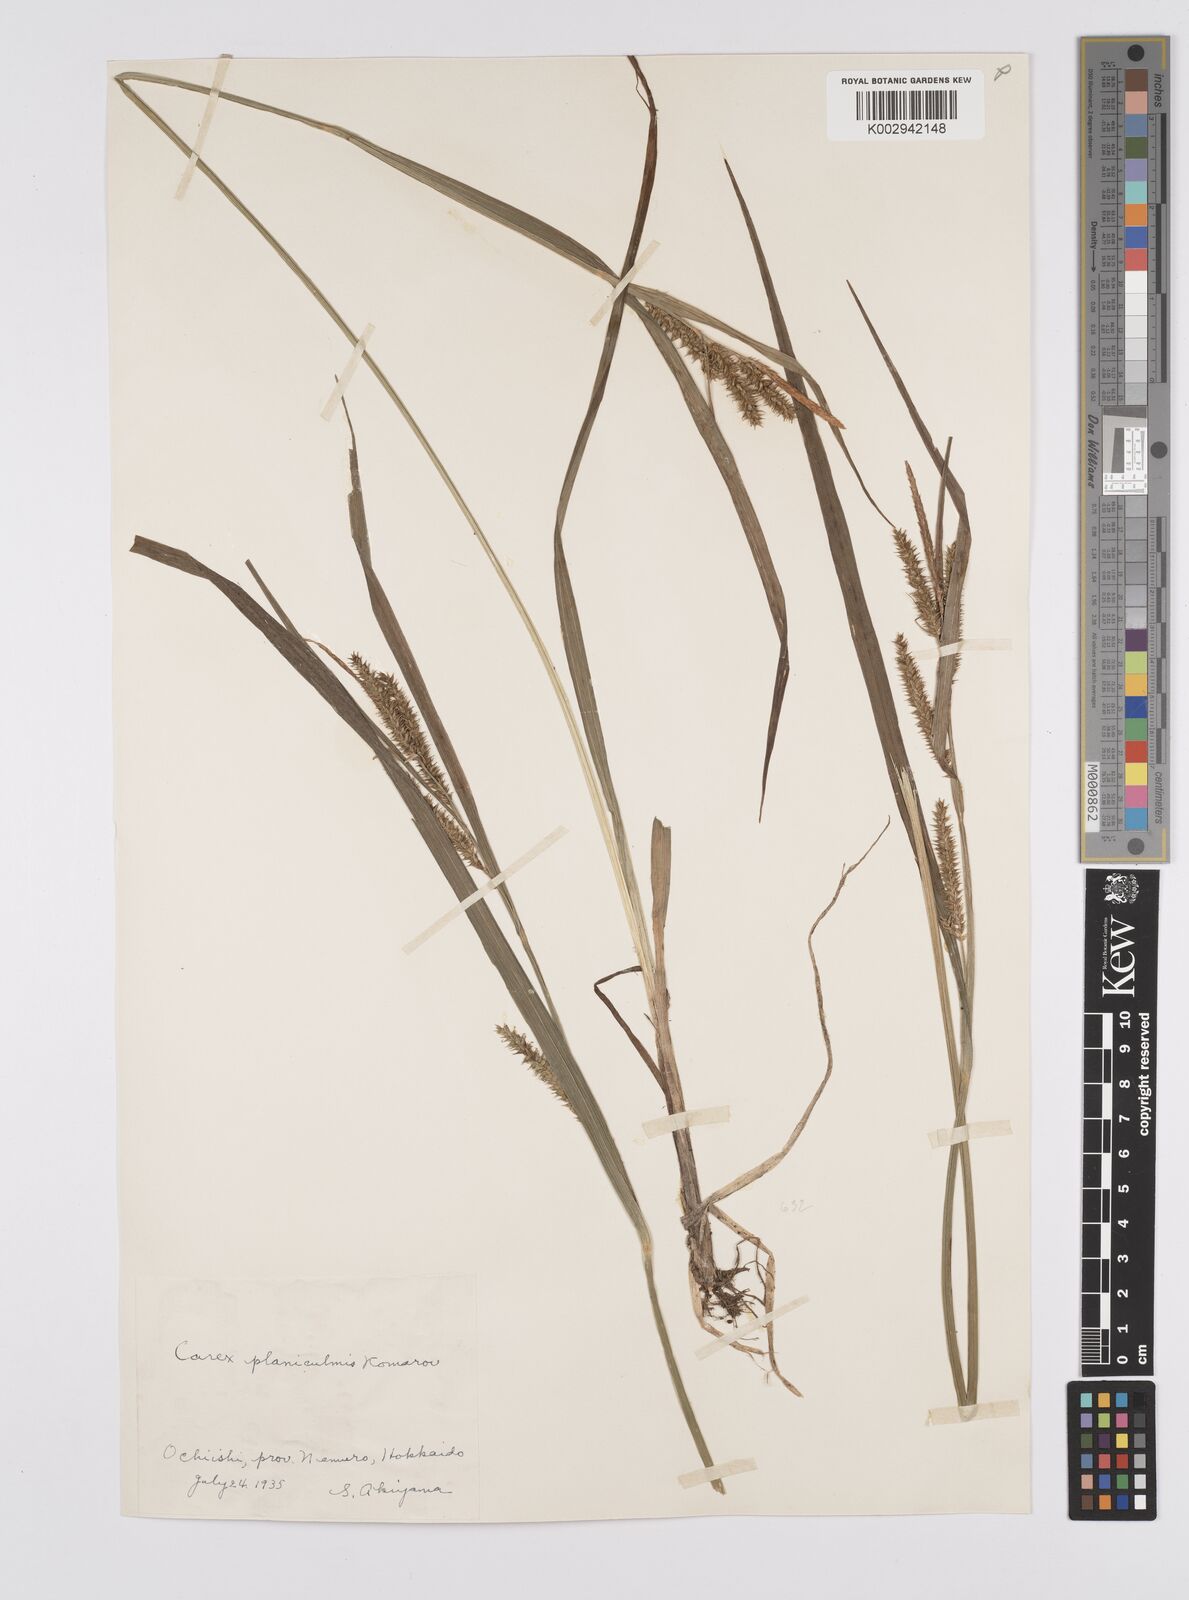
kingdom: Plantae
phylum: Tracheophyta
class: Liliopsida
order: Poales
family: Cyperaceae
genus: Carex
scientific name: Carex planiculmis
